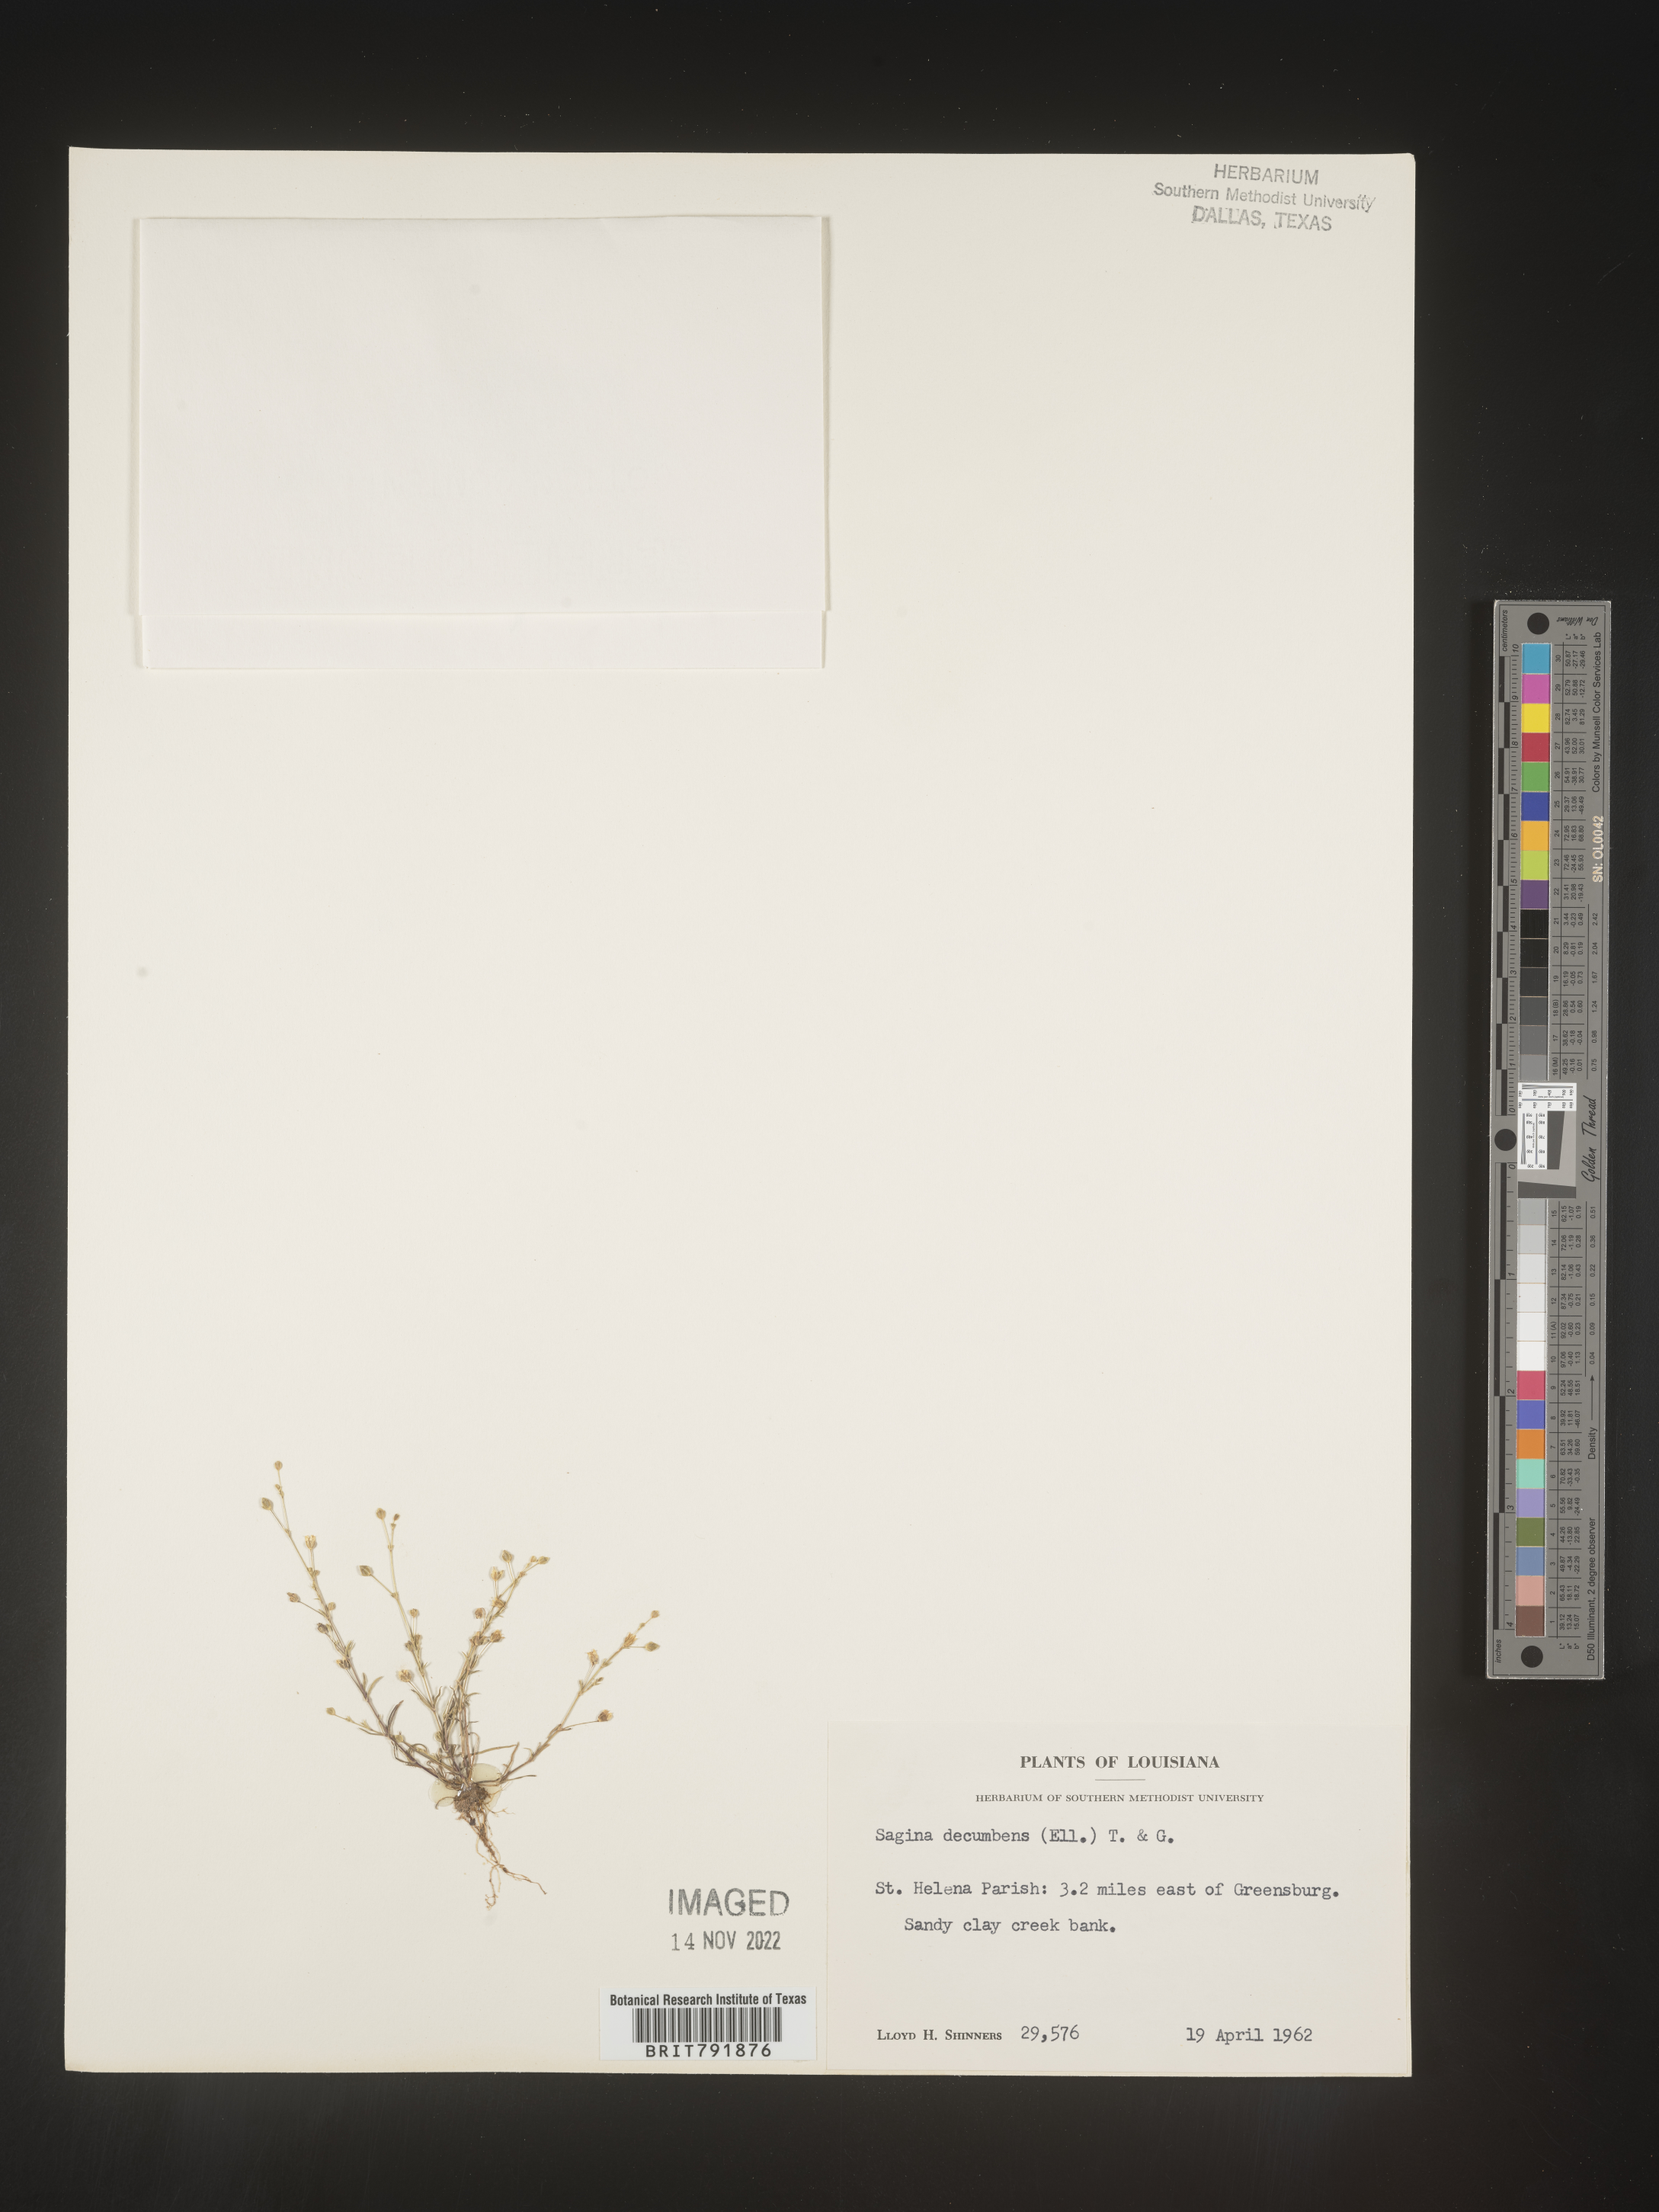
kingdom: Plantae
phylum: Tracheophyta
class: Magnoliopsida
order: Caryophyllales
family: Caryophyllaceae
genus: Sagina
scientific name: Sagina decumbens
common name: Decumbent pearlwort
